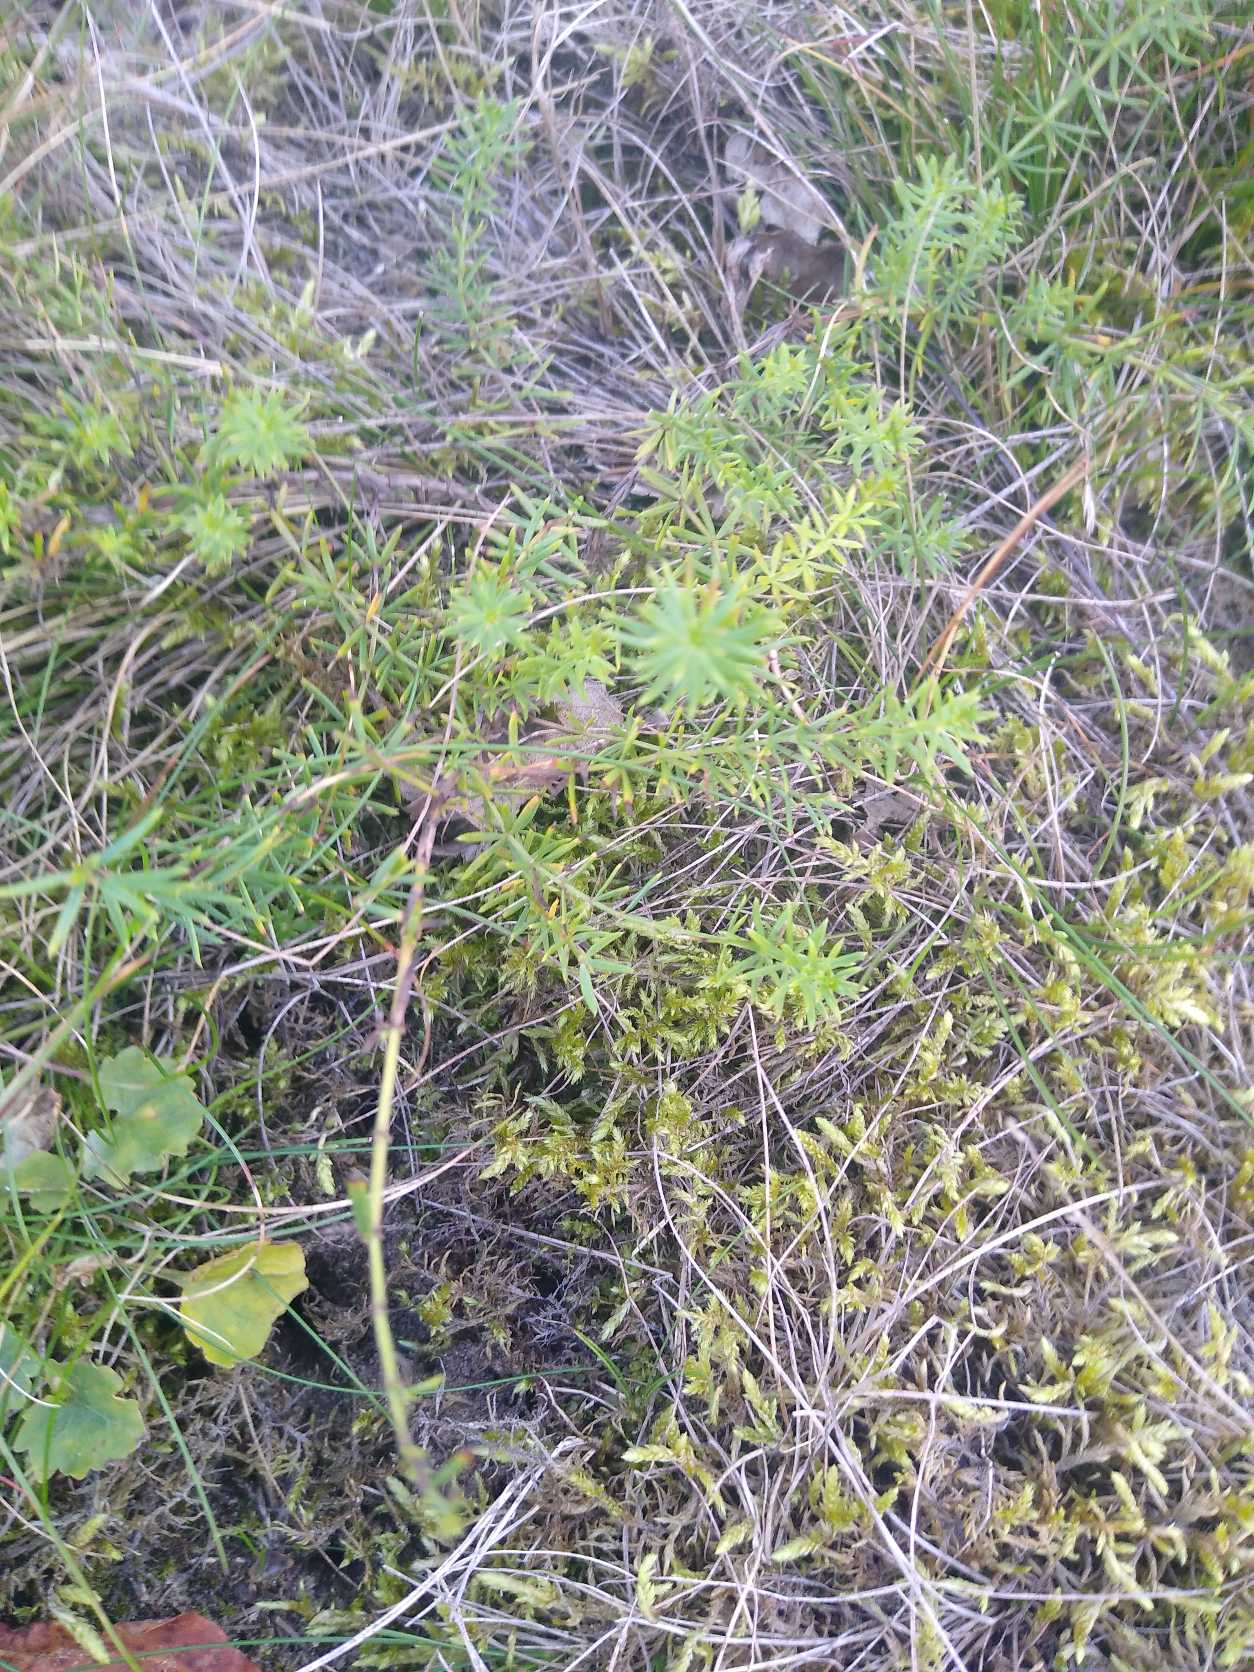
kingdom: Plantae
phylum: Tracheophyta
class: Magnoliopsida
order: Gentianales
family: Rubiaceae
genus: Galium
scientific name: Galium verum
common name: Gul snerre
